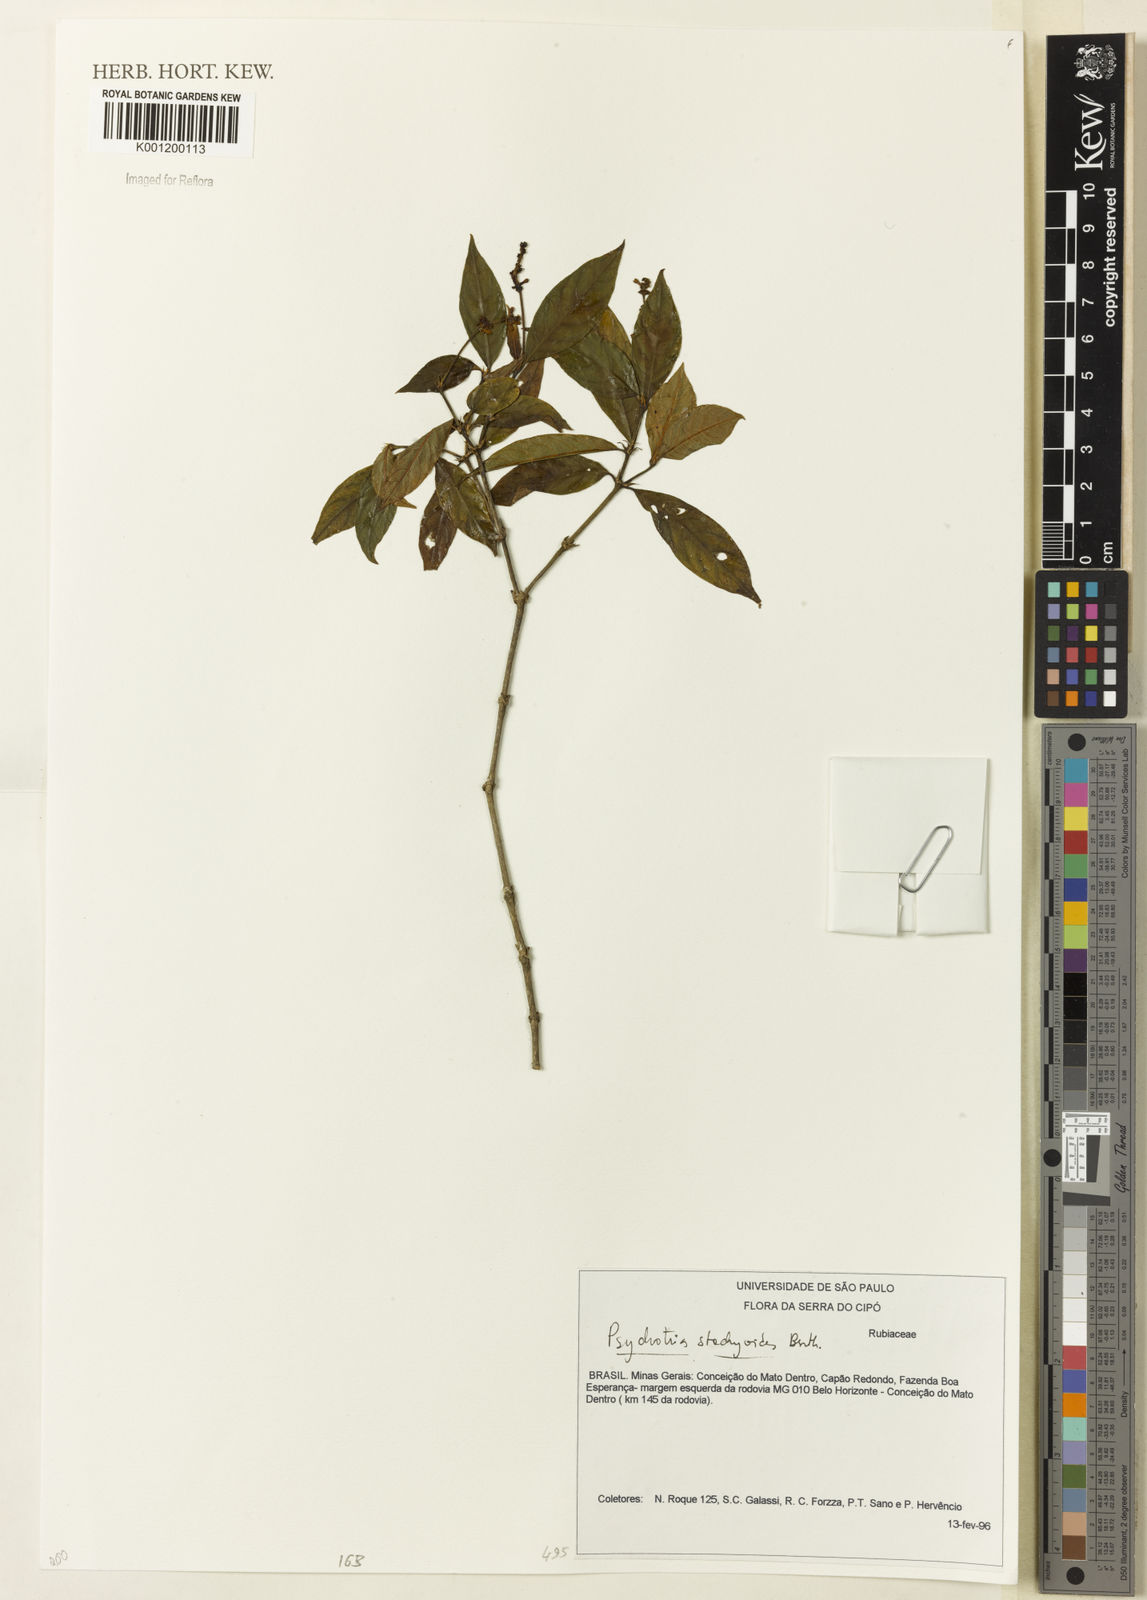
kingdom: Plantae
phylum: Tracheophyta
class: Magnoliopsida
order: Gentianales
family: Rubiaceae
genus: Psychotria
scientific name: Psychotria stachyoides
